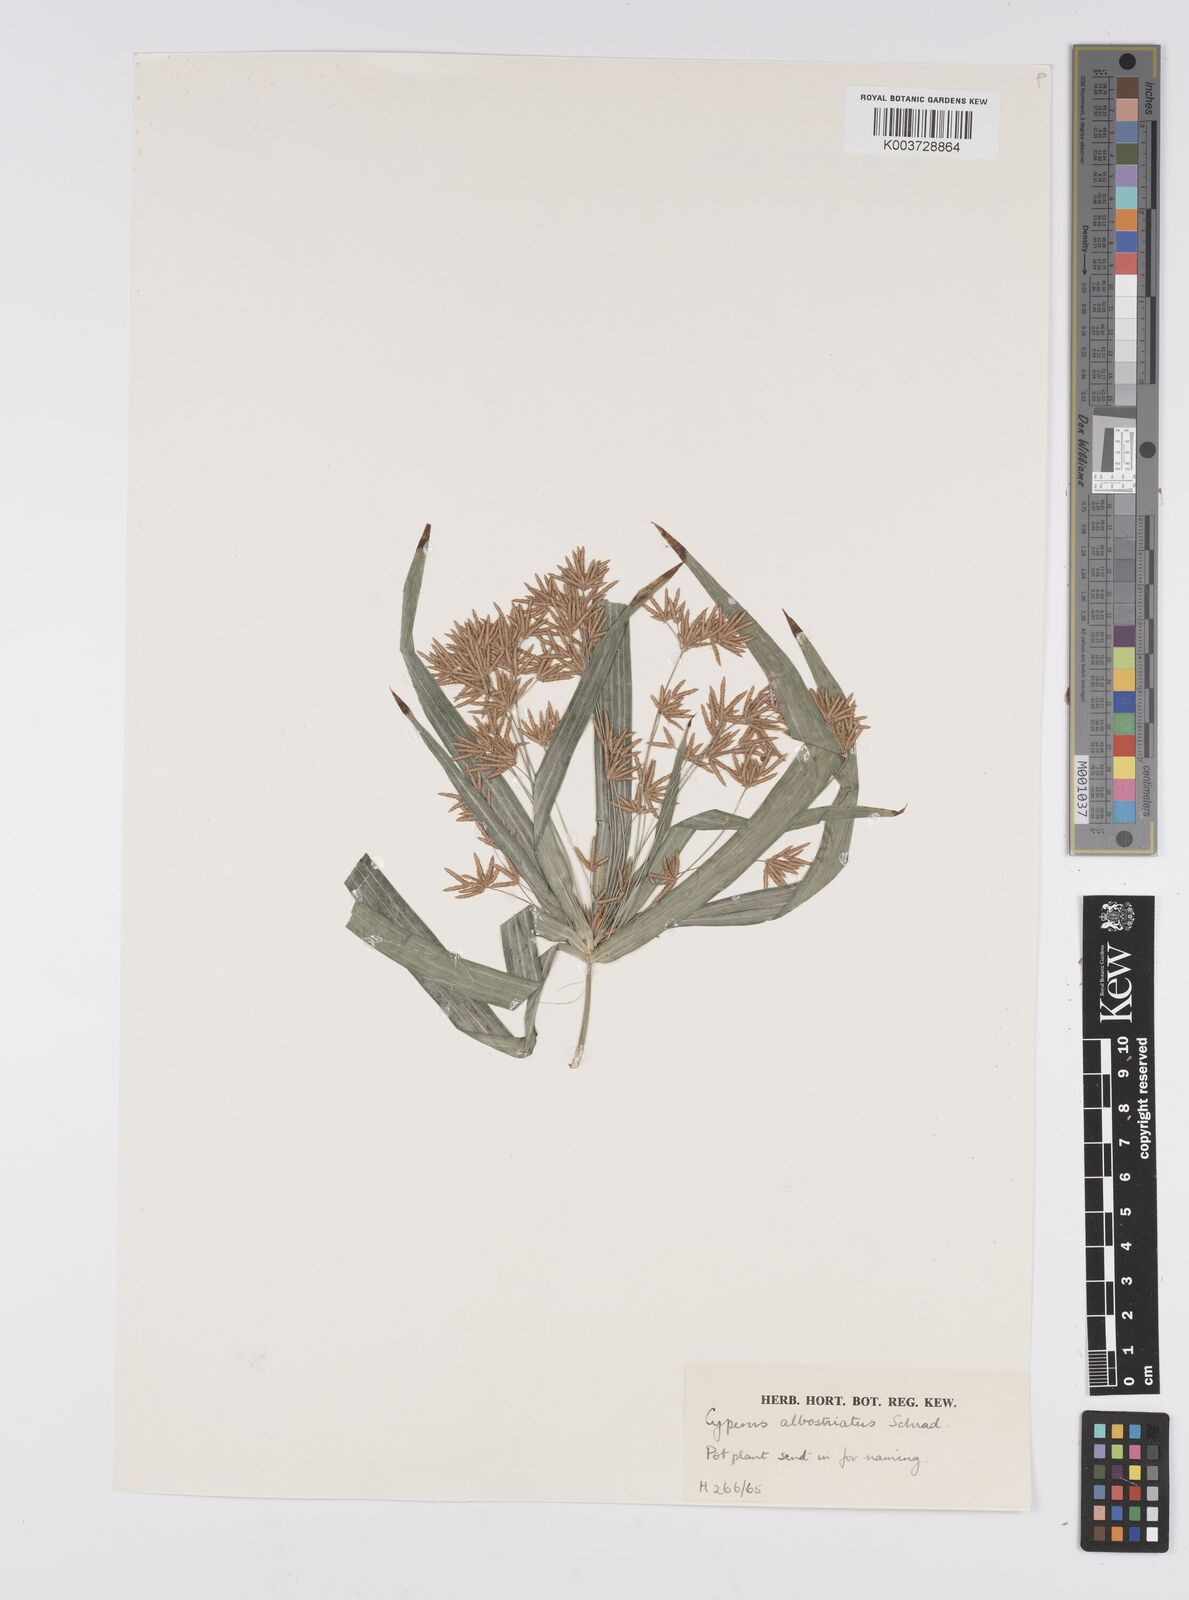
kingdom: Plantae
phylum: Tracheophyta
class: Liliopsida
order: Poales
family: Cyperaceae
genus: Cyperus
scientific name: Cyperus albostriatus
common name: Dwarf umbrella-grass
